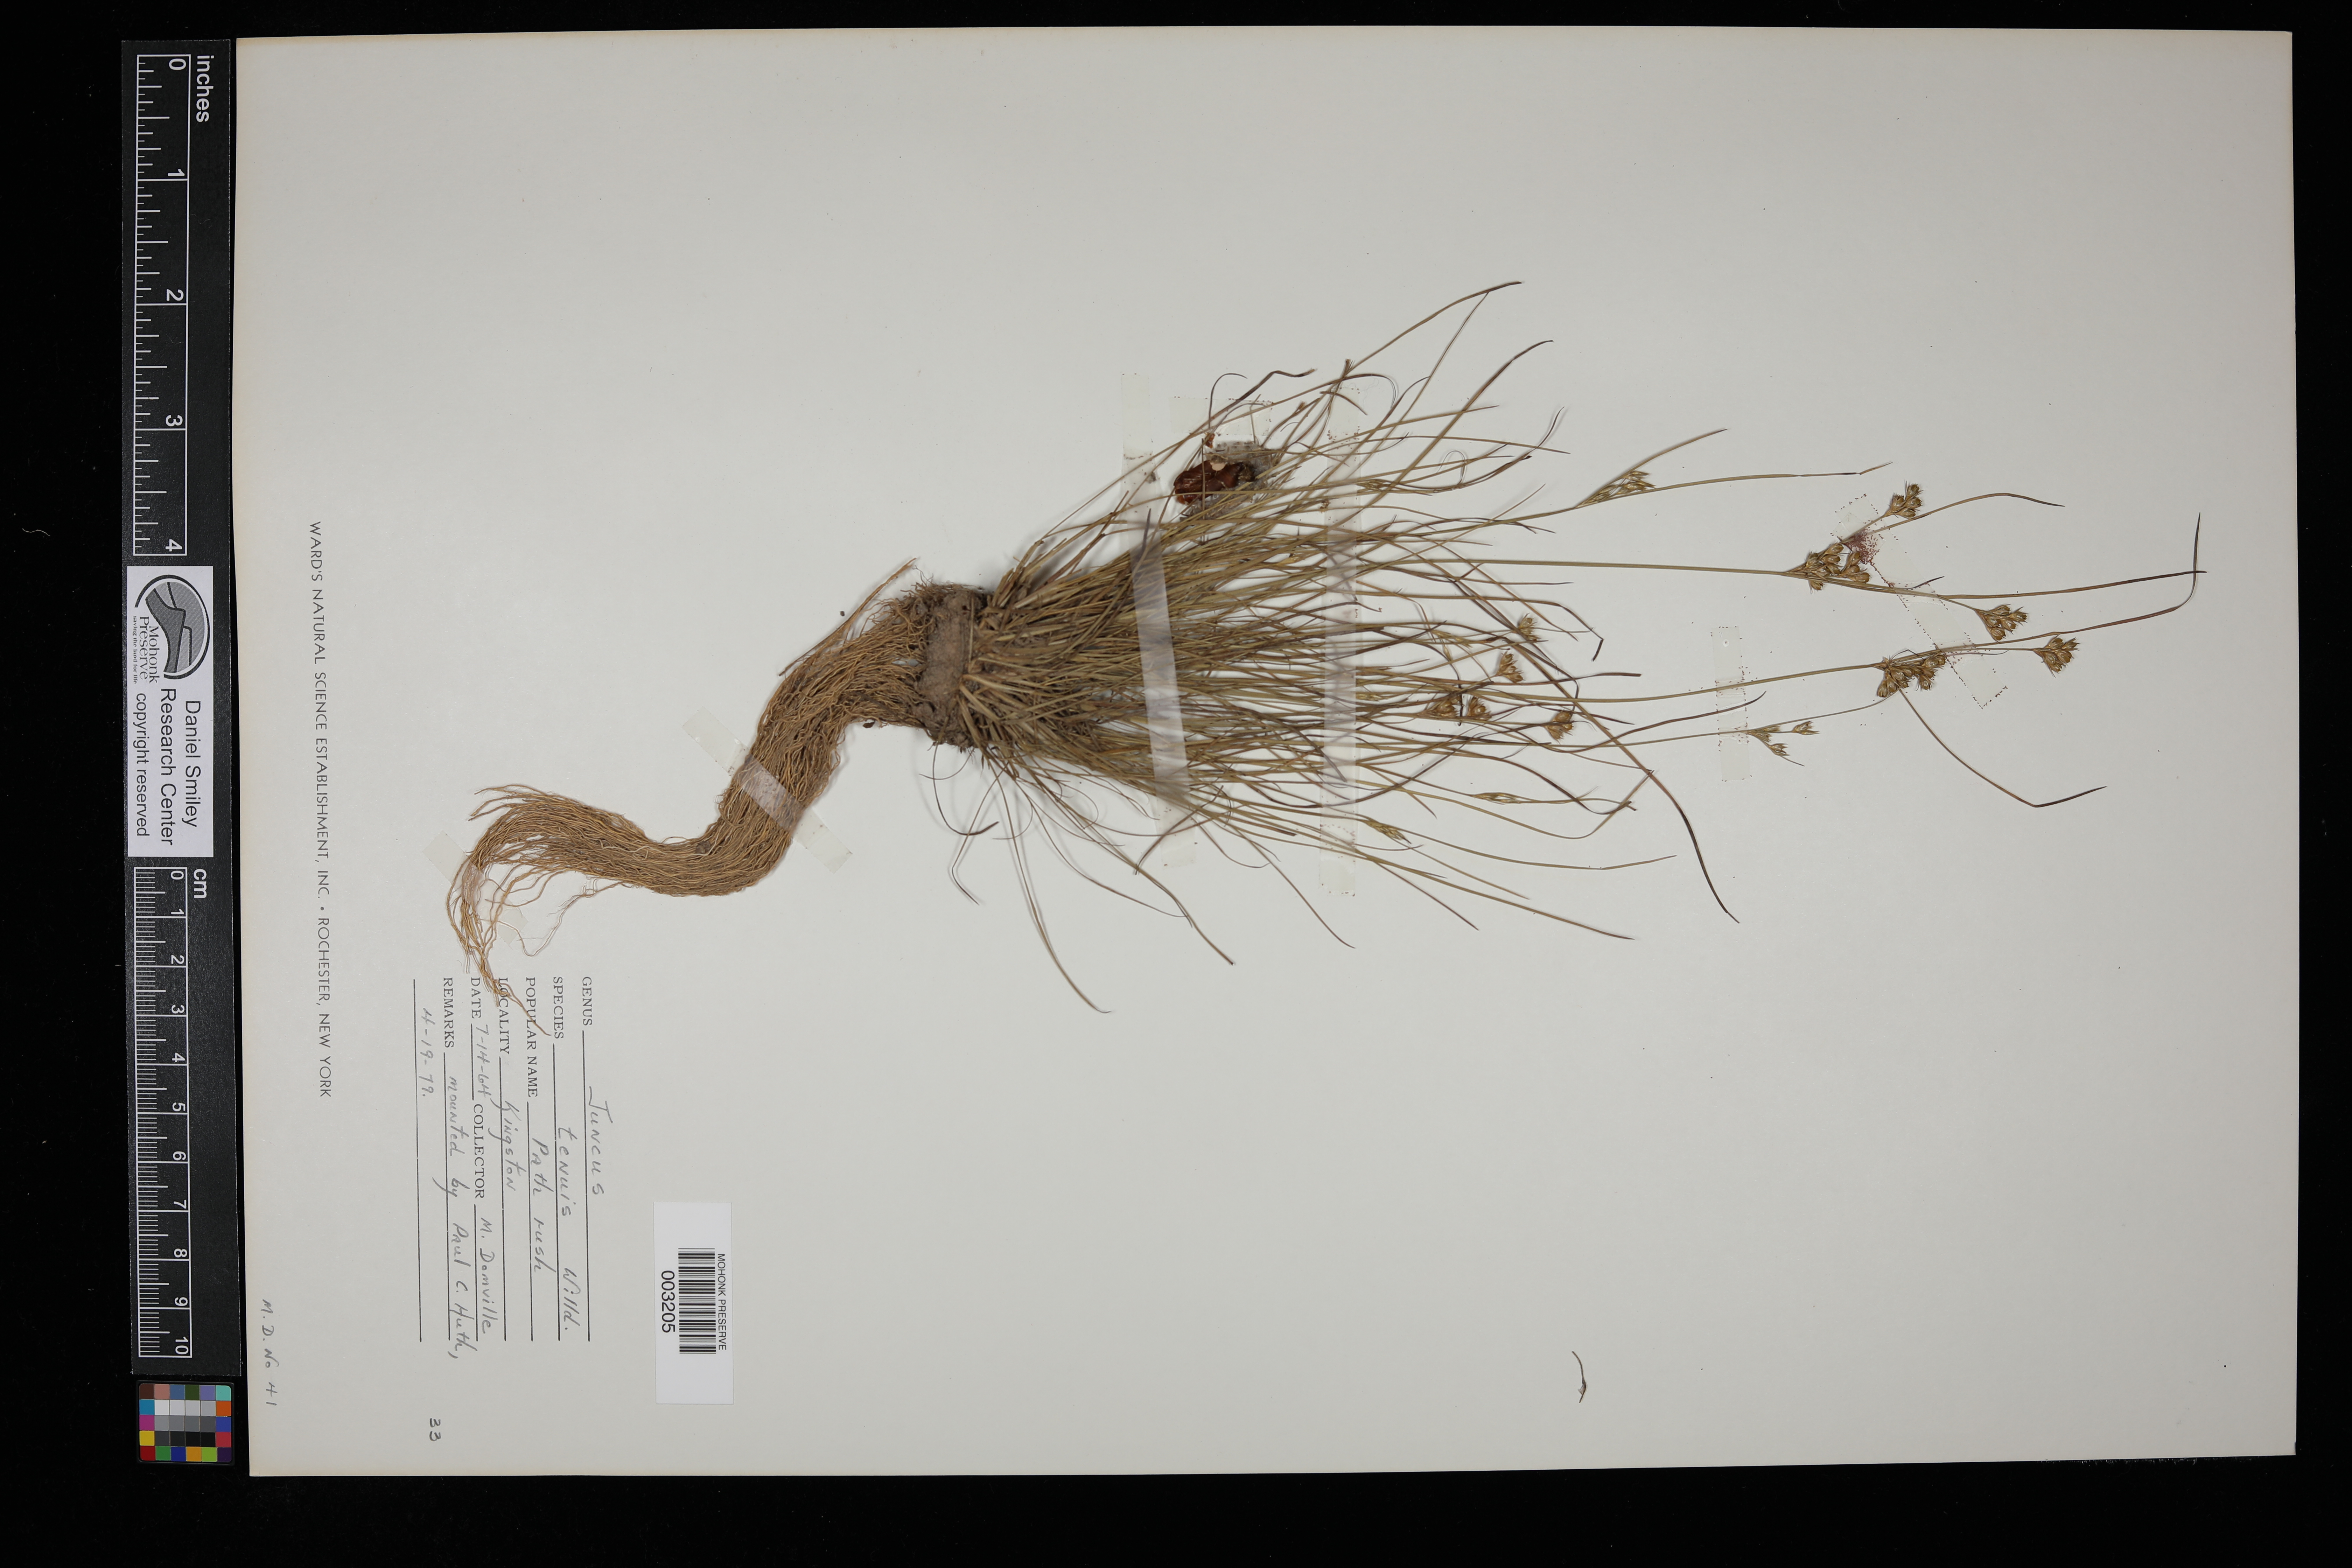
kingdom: Plantae
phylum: Tracheophyta
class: Liliopsida
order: Poales
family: Juncaceae
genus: Juncus
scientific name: Juncus tenuis
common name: Slender rush
